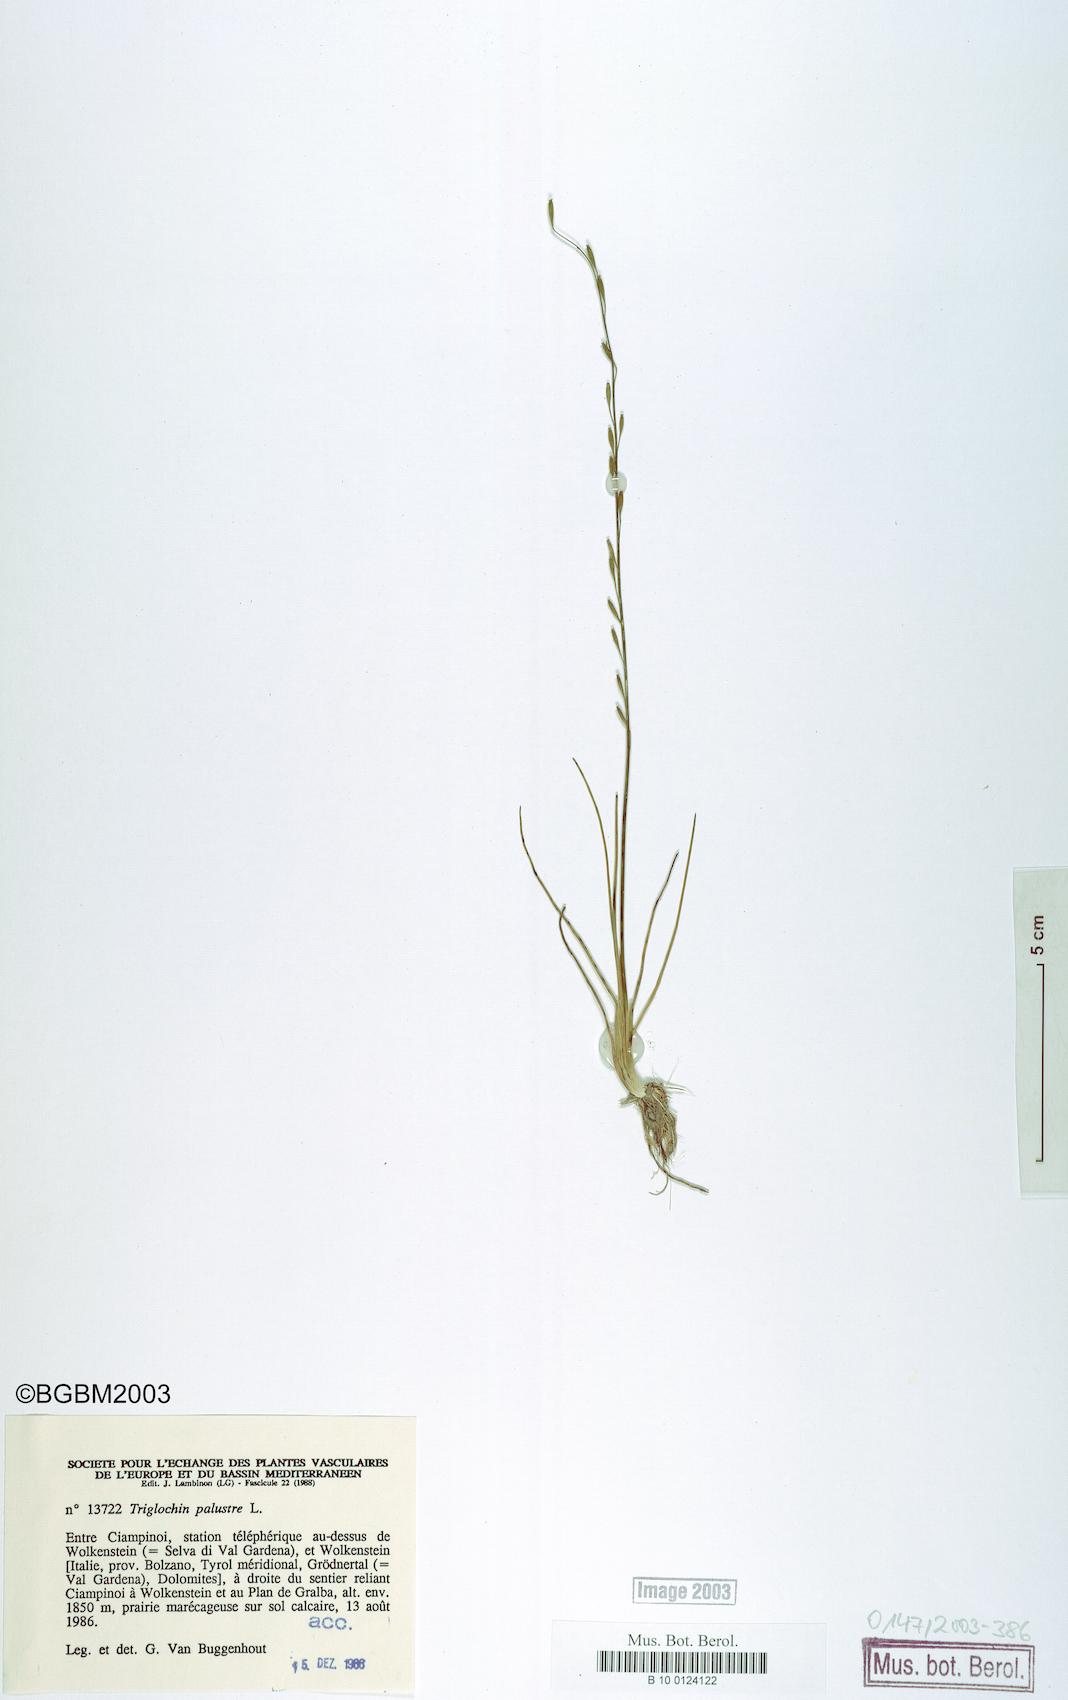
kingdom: Plantae
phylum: Tracheophyta
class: Liliopsida
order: Alismatales
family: Juncaginaceae
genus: Triglochin
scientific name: Triglochin palustris
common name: Marsh arrowgrass
